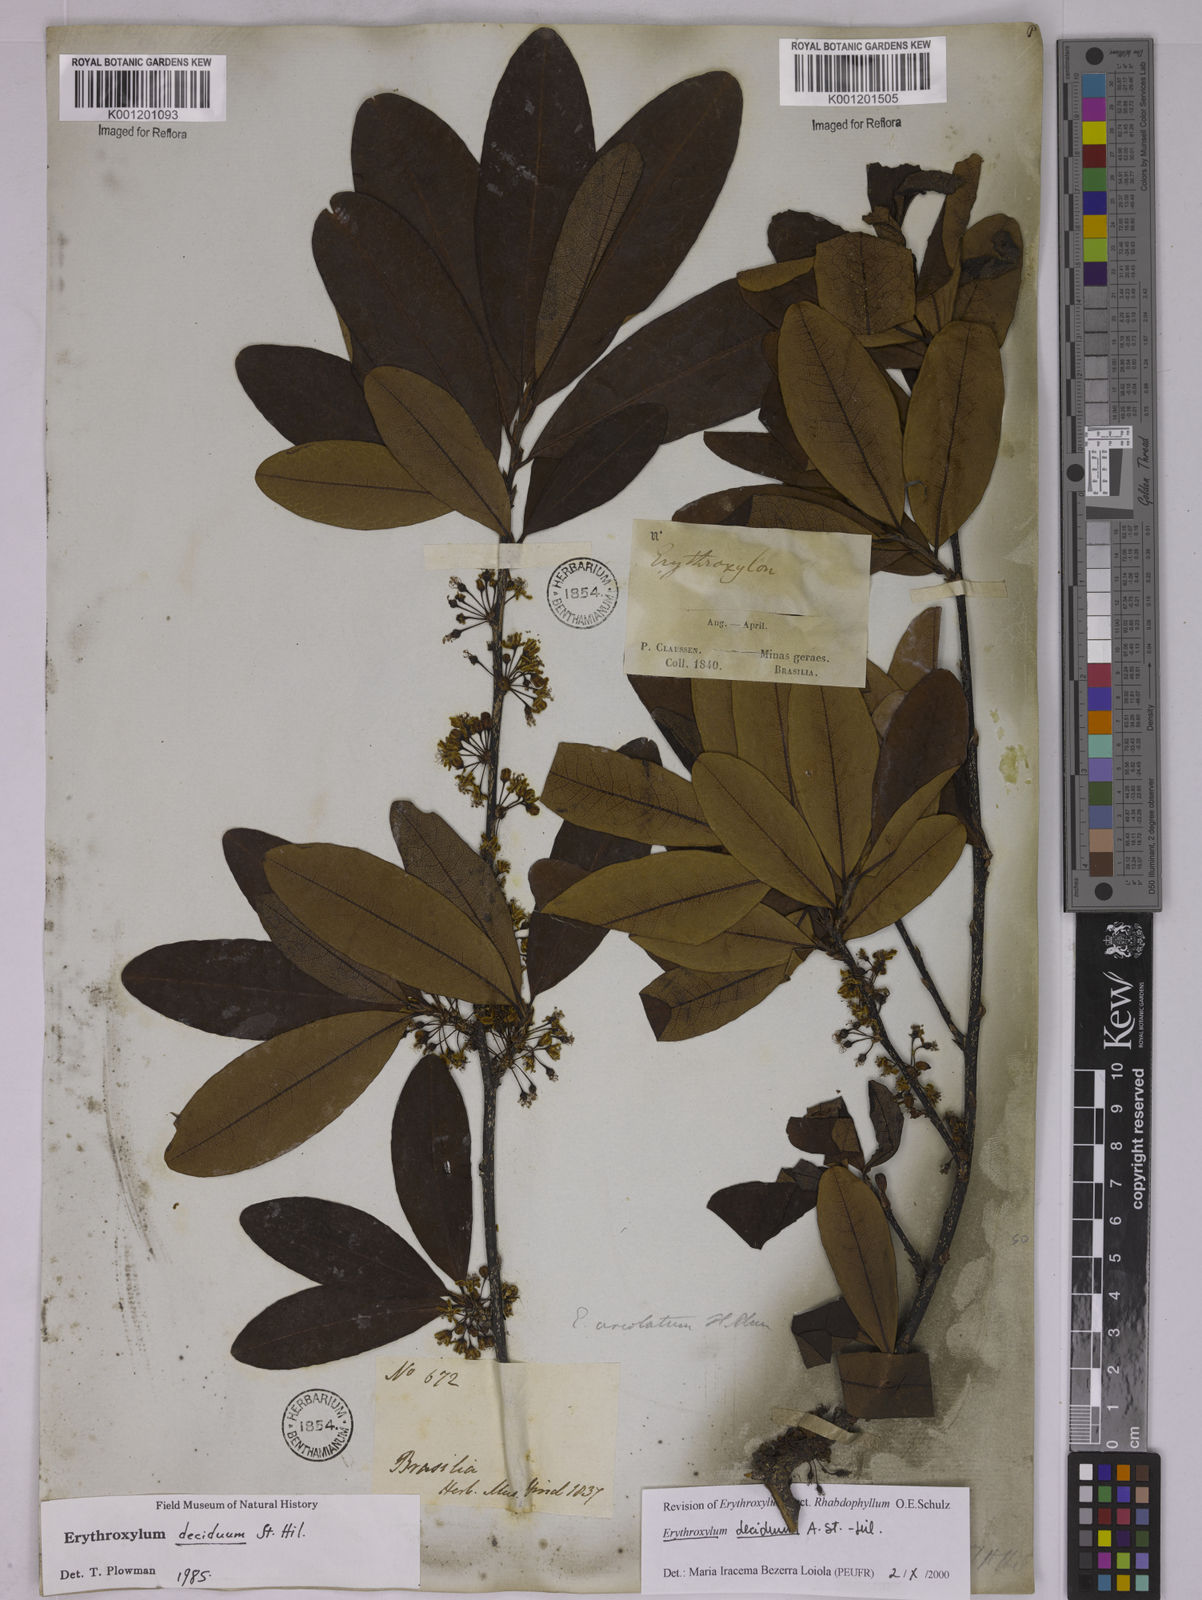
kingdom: Plantae
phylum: Tracheophyta
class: Magnoliopsida
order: Malpighiales
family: Erythroxylaceae
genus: Erythroxylum
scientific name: Erythroxylum deciduum
